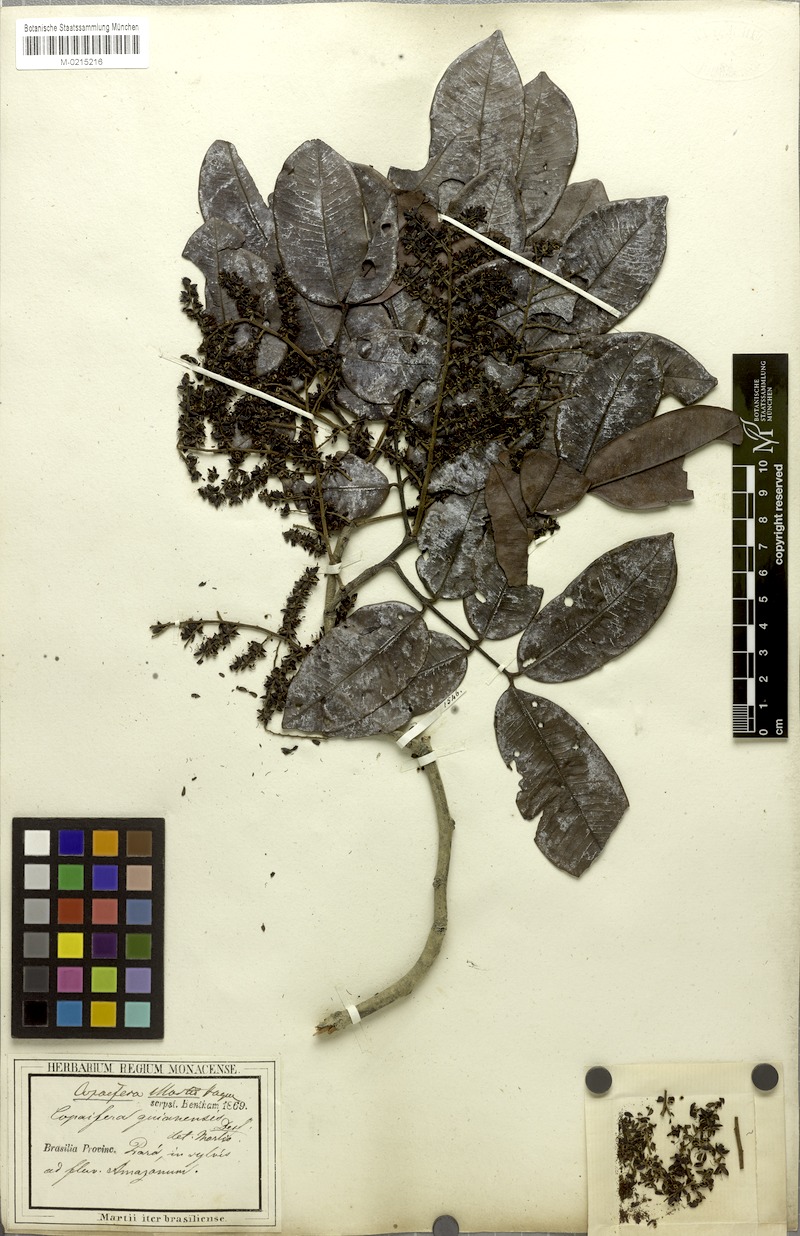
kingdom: Plantae
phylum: Tracheophyta
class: Magnoliopsida
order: Fabales
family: Fabaceae
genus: Copaifera
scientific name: Copaifera martii
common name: Copaiba
